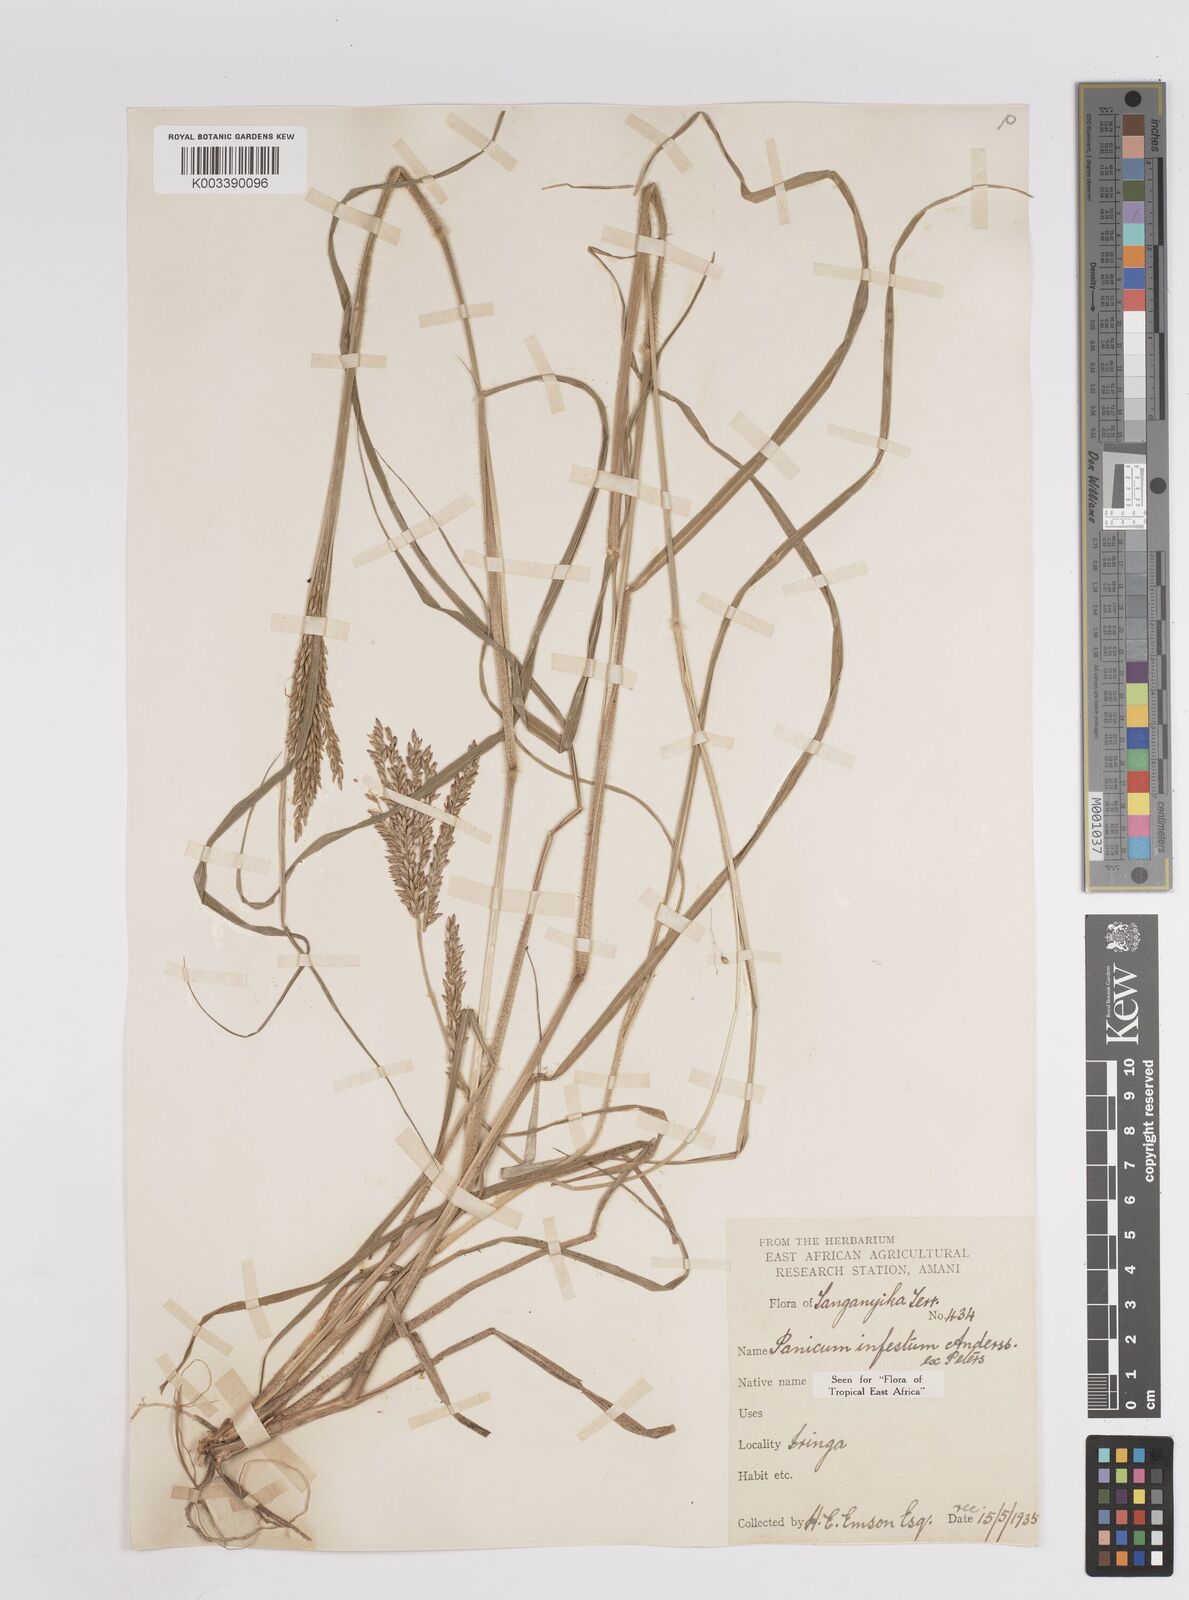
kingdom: Plantae
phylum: Tracheophyta
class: Liliopsida
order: Poales
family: Poaceae
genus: Megathyrsus
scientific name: Megathyrsus infestus
